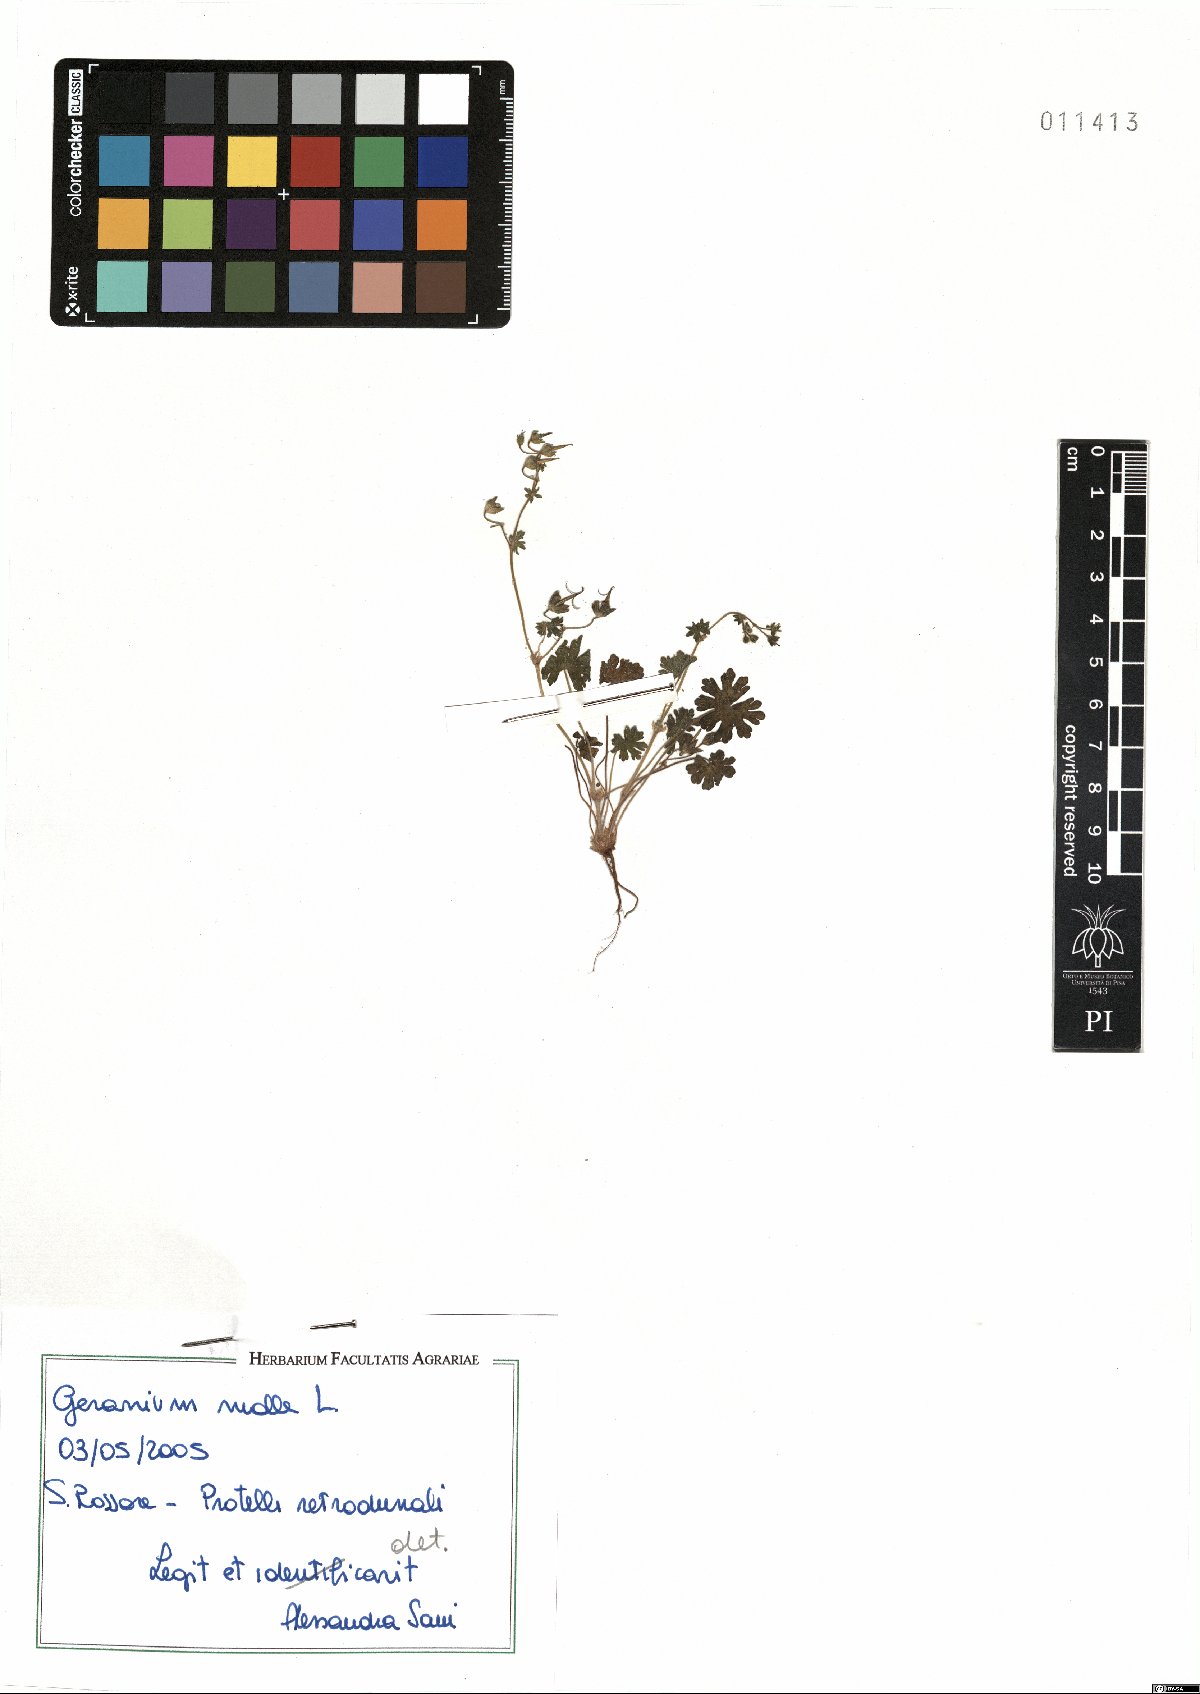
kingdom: Plantae
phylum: Tracheophyta
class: Magnoliopsida
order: Geraniales
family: Geraniaceae
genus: Geranium
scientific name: Geranium molle
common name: Dove's-foot crane's-bill
